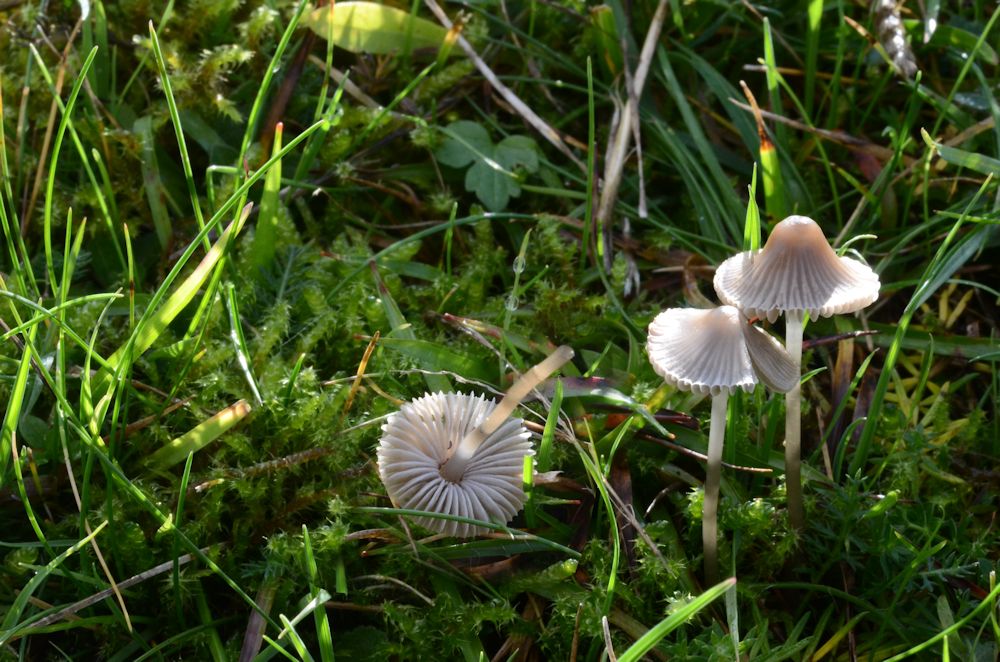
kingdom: Fungi
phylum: Basidiomycota
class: Agaricomycetes
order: Agaricales
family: Mycenaceae
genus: Mycena
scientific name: Mycena aetites
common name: plæne-huesvamp
